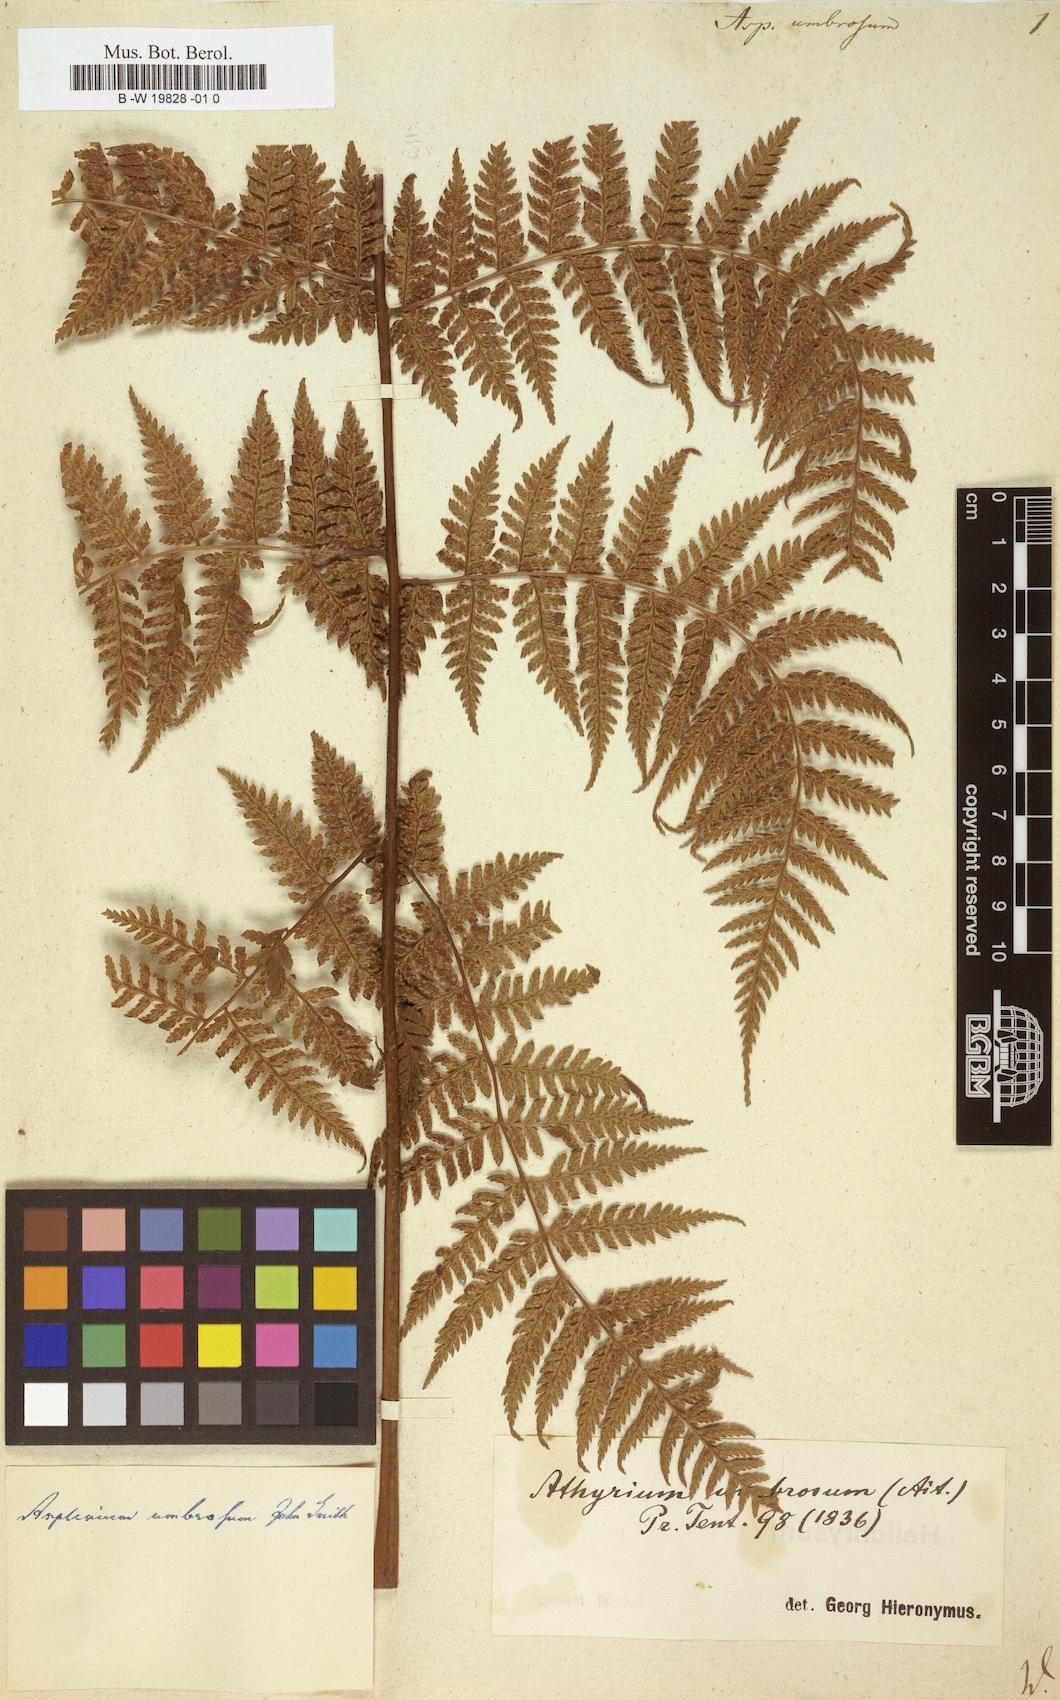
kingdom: Plantae
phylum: Tracheophyta
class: Polypodiopsida
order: Polypodiales
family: Athyriaceae
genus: Diplazium
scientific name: Diplazium caudatum
